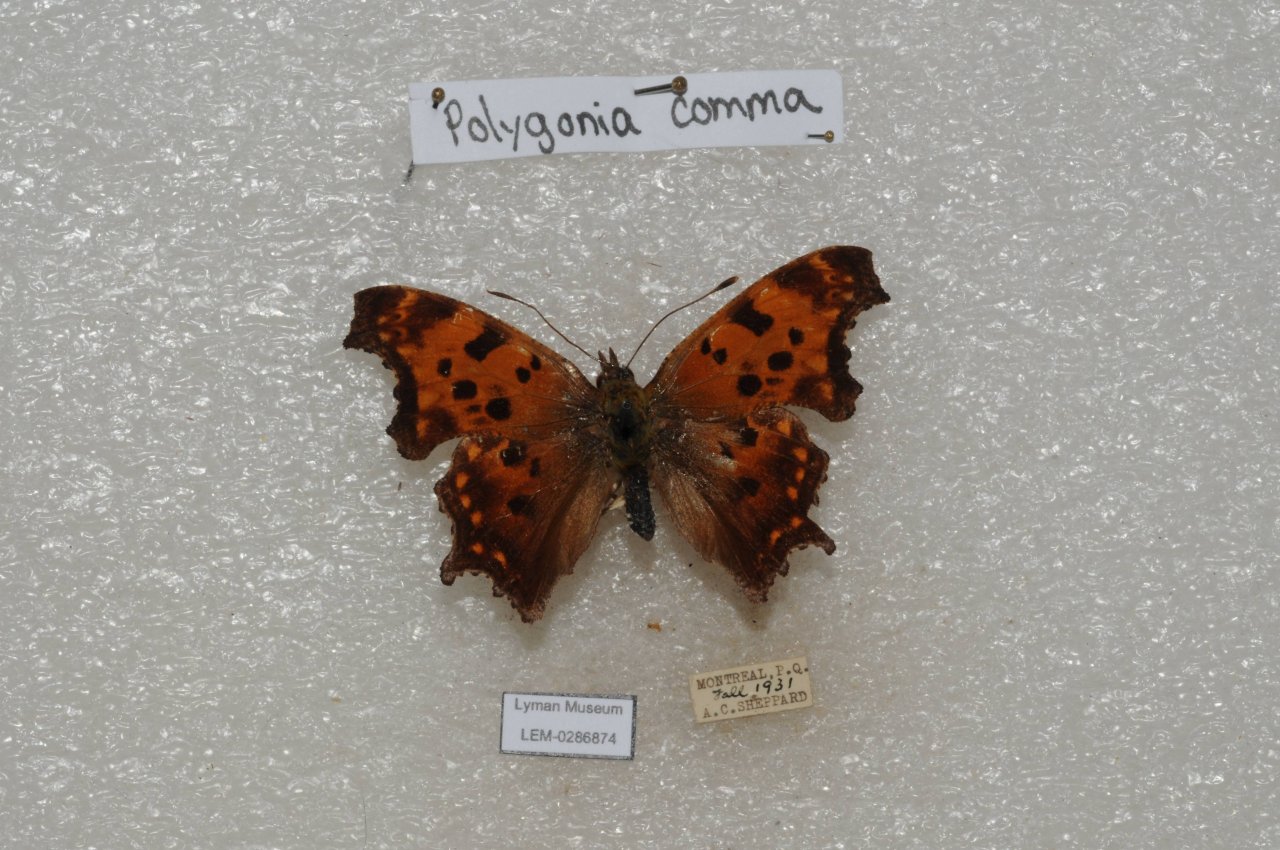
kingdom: Animalia
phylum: Arthropoda
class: Insecta
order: Lepidoptera
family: Nymphalidae
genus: Polygonia
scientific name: Polygonia comma
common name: Eastern Comma
